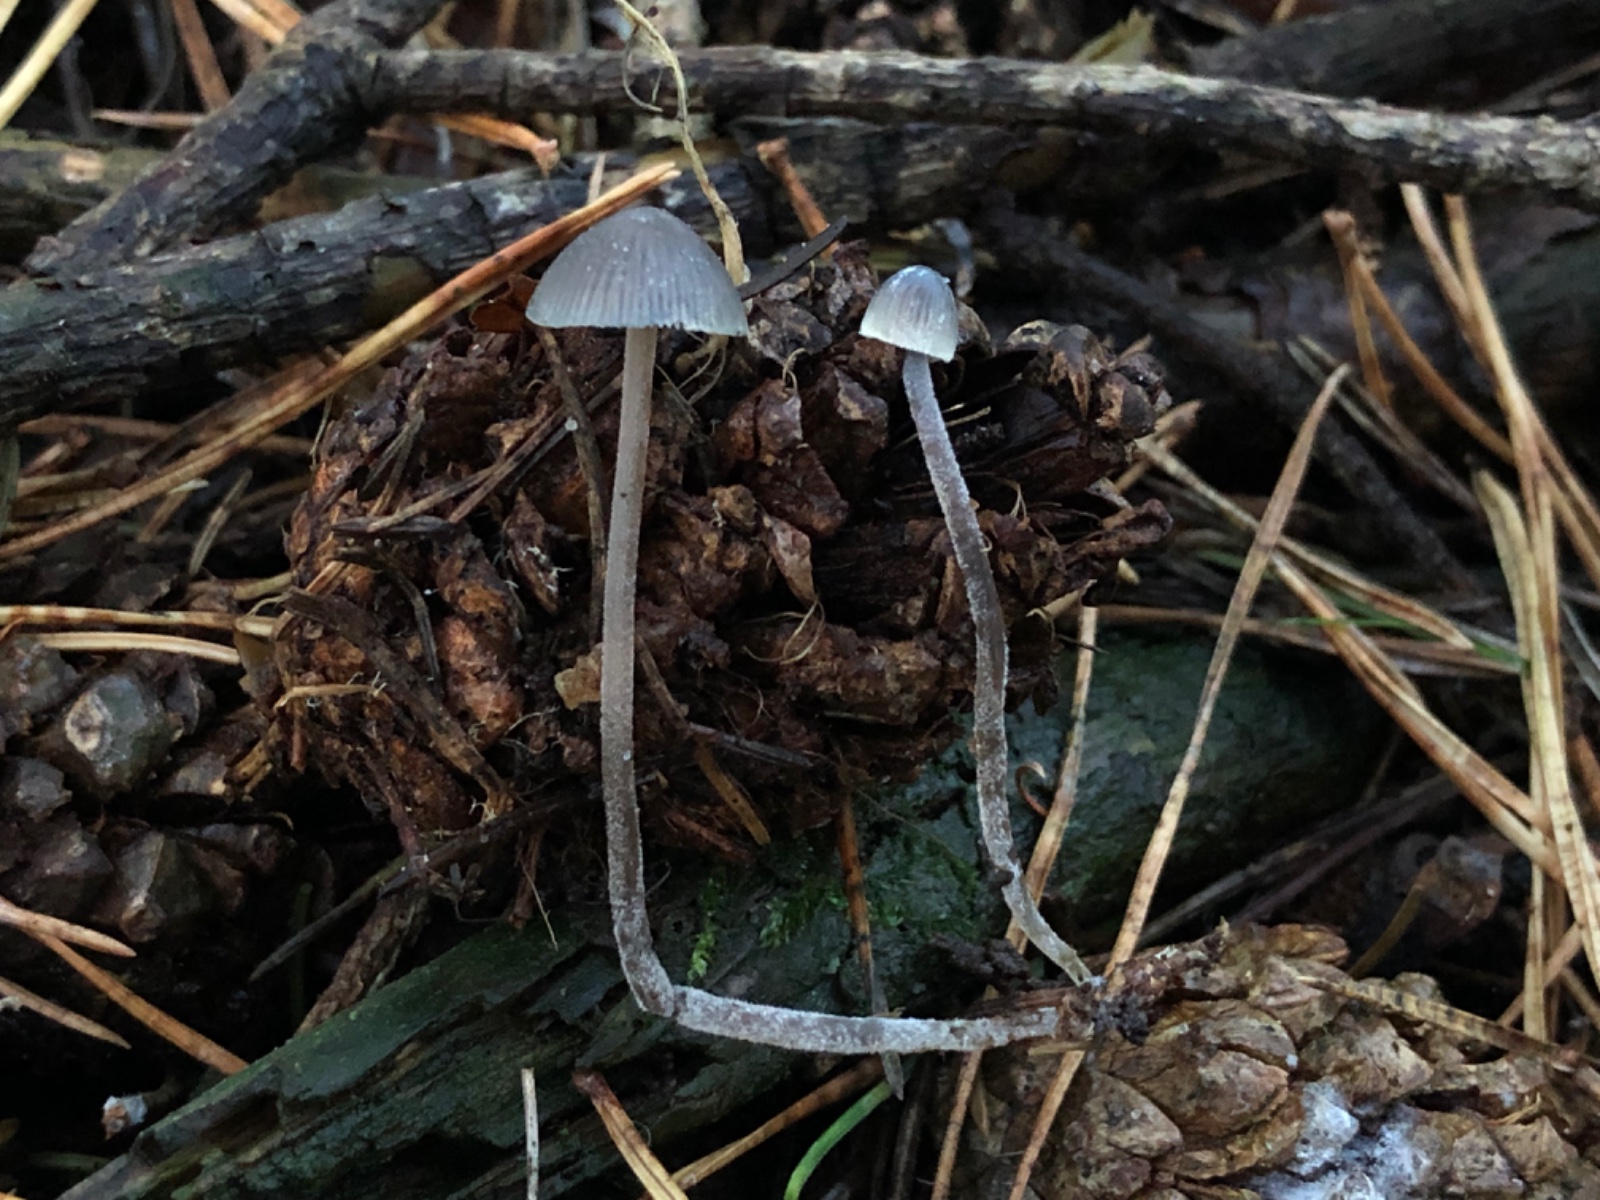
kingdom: Fungi
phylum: Basidiomycota
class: Agaricomycetes
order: Agaricales
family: Mycenaceae
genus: Mycena
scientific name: Mycena amicta
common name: iris-huesvamp
